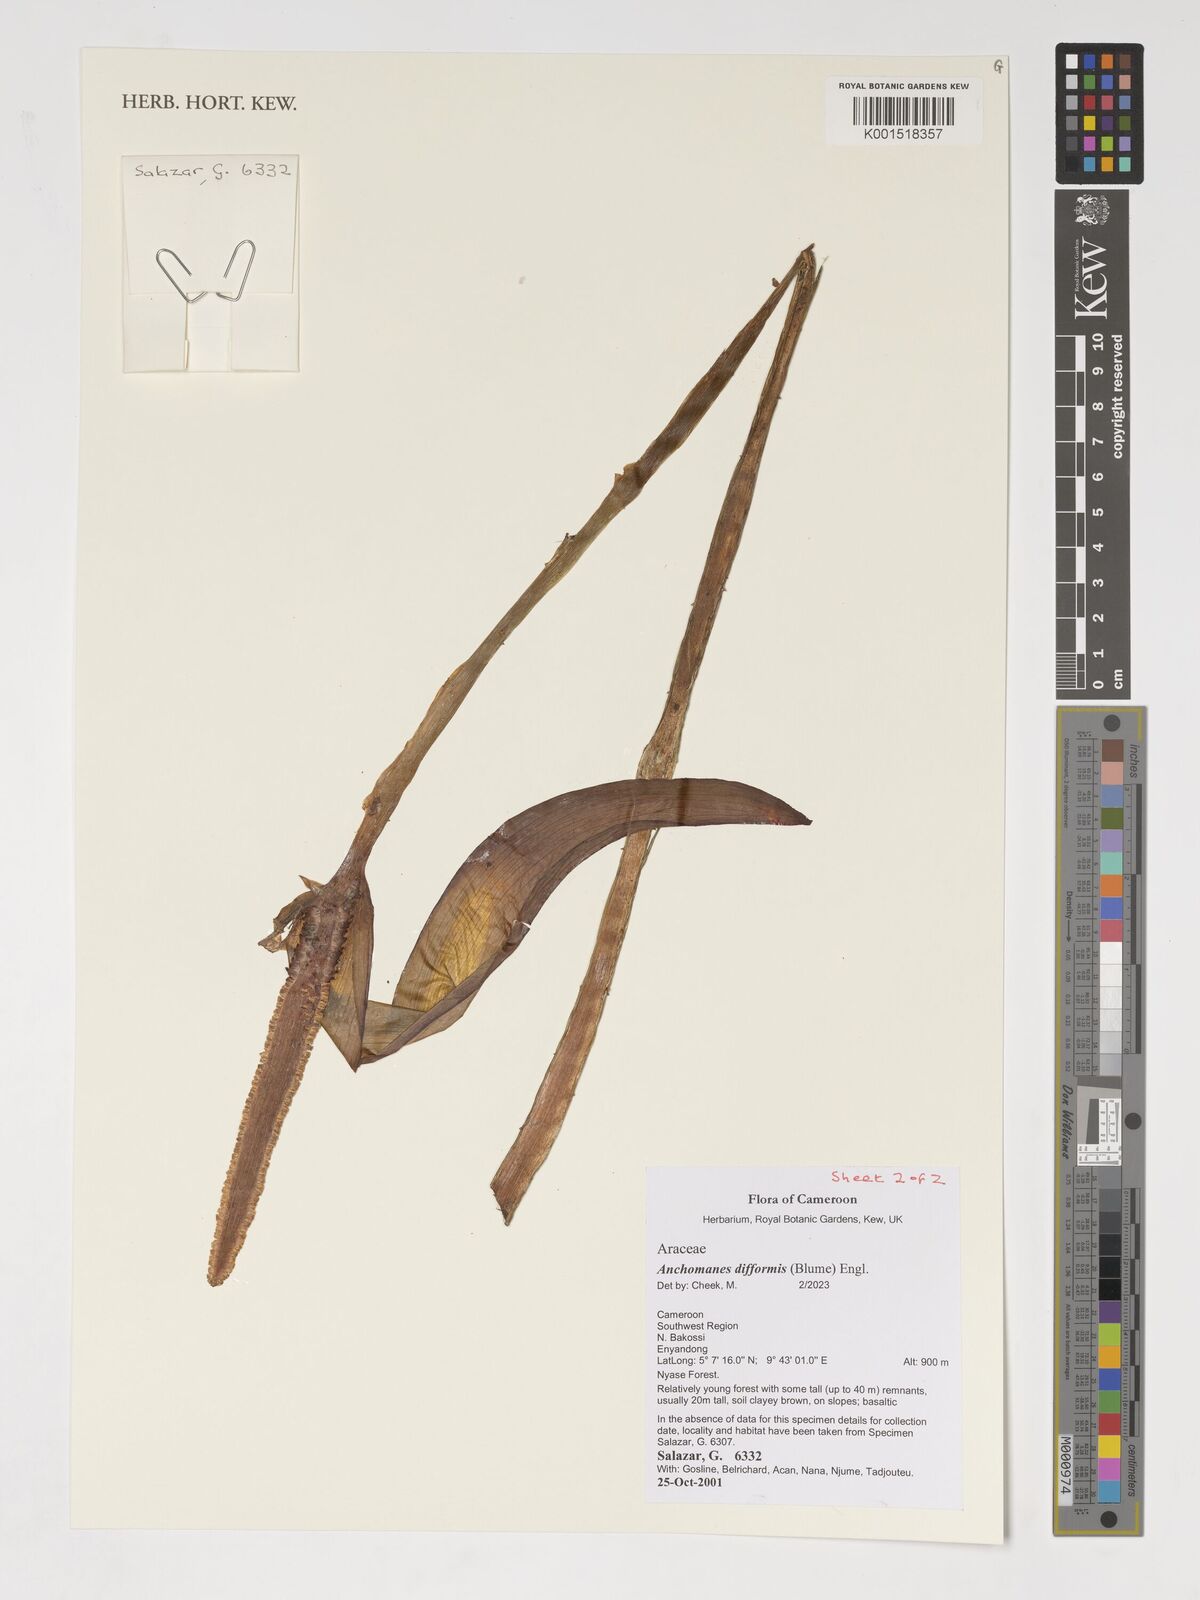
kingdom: Plantae
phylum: Tracheophyta
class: Liliopsida
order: Alismatales
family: Araceae
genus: Anchomanes
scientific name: Anchomanes difformis
